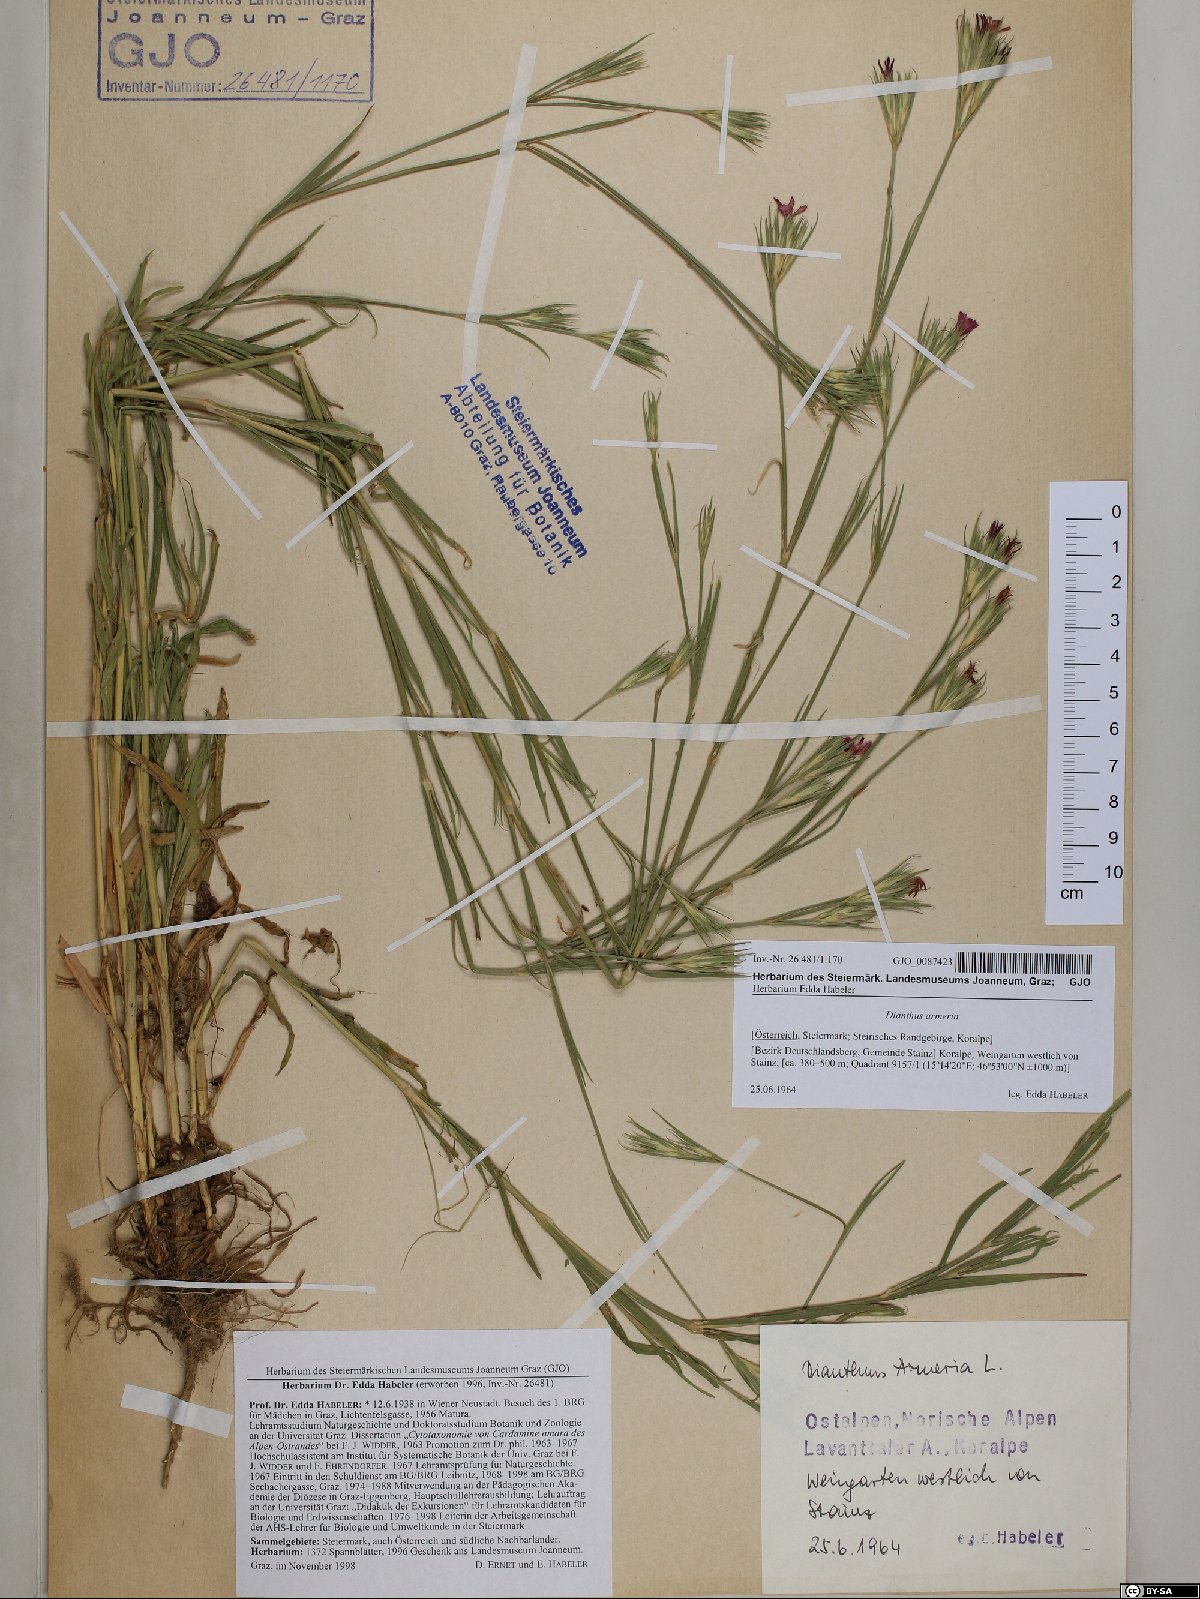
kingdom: Plantae
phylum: Tracheophyta
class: Magnoliopsida
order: Caryophyllales
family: Caryophyllaceae
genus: Dianthus
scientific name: Dianthus armeria
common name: Deptford pink
